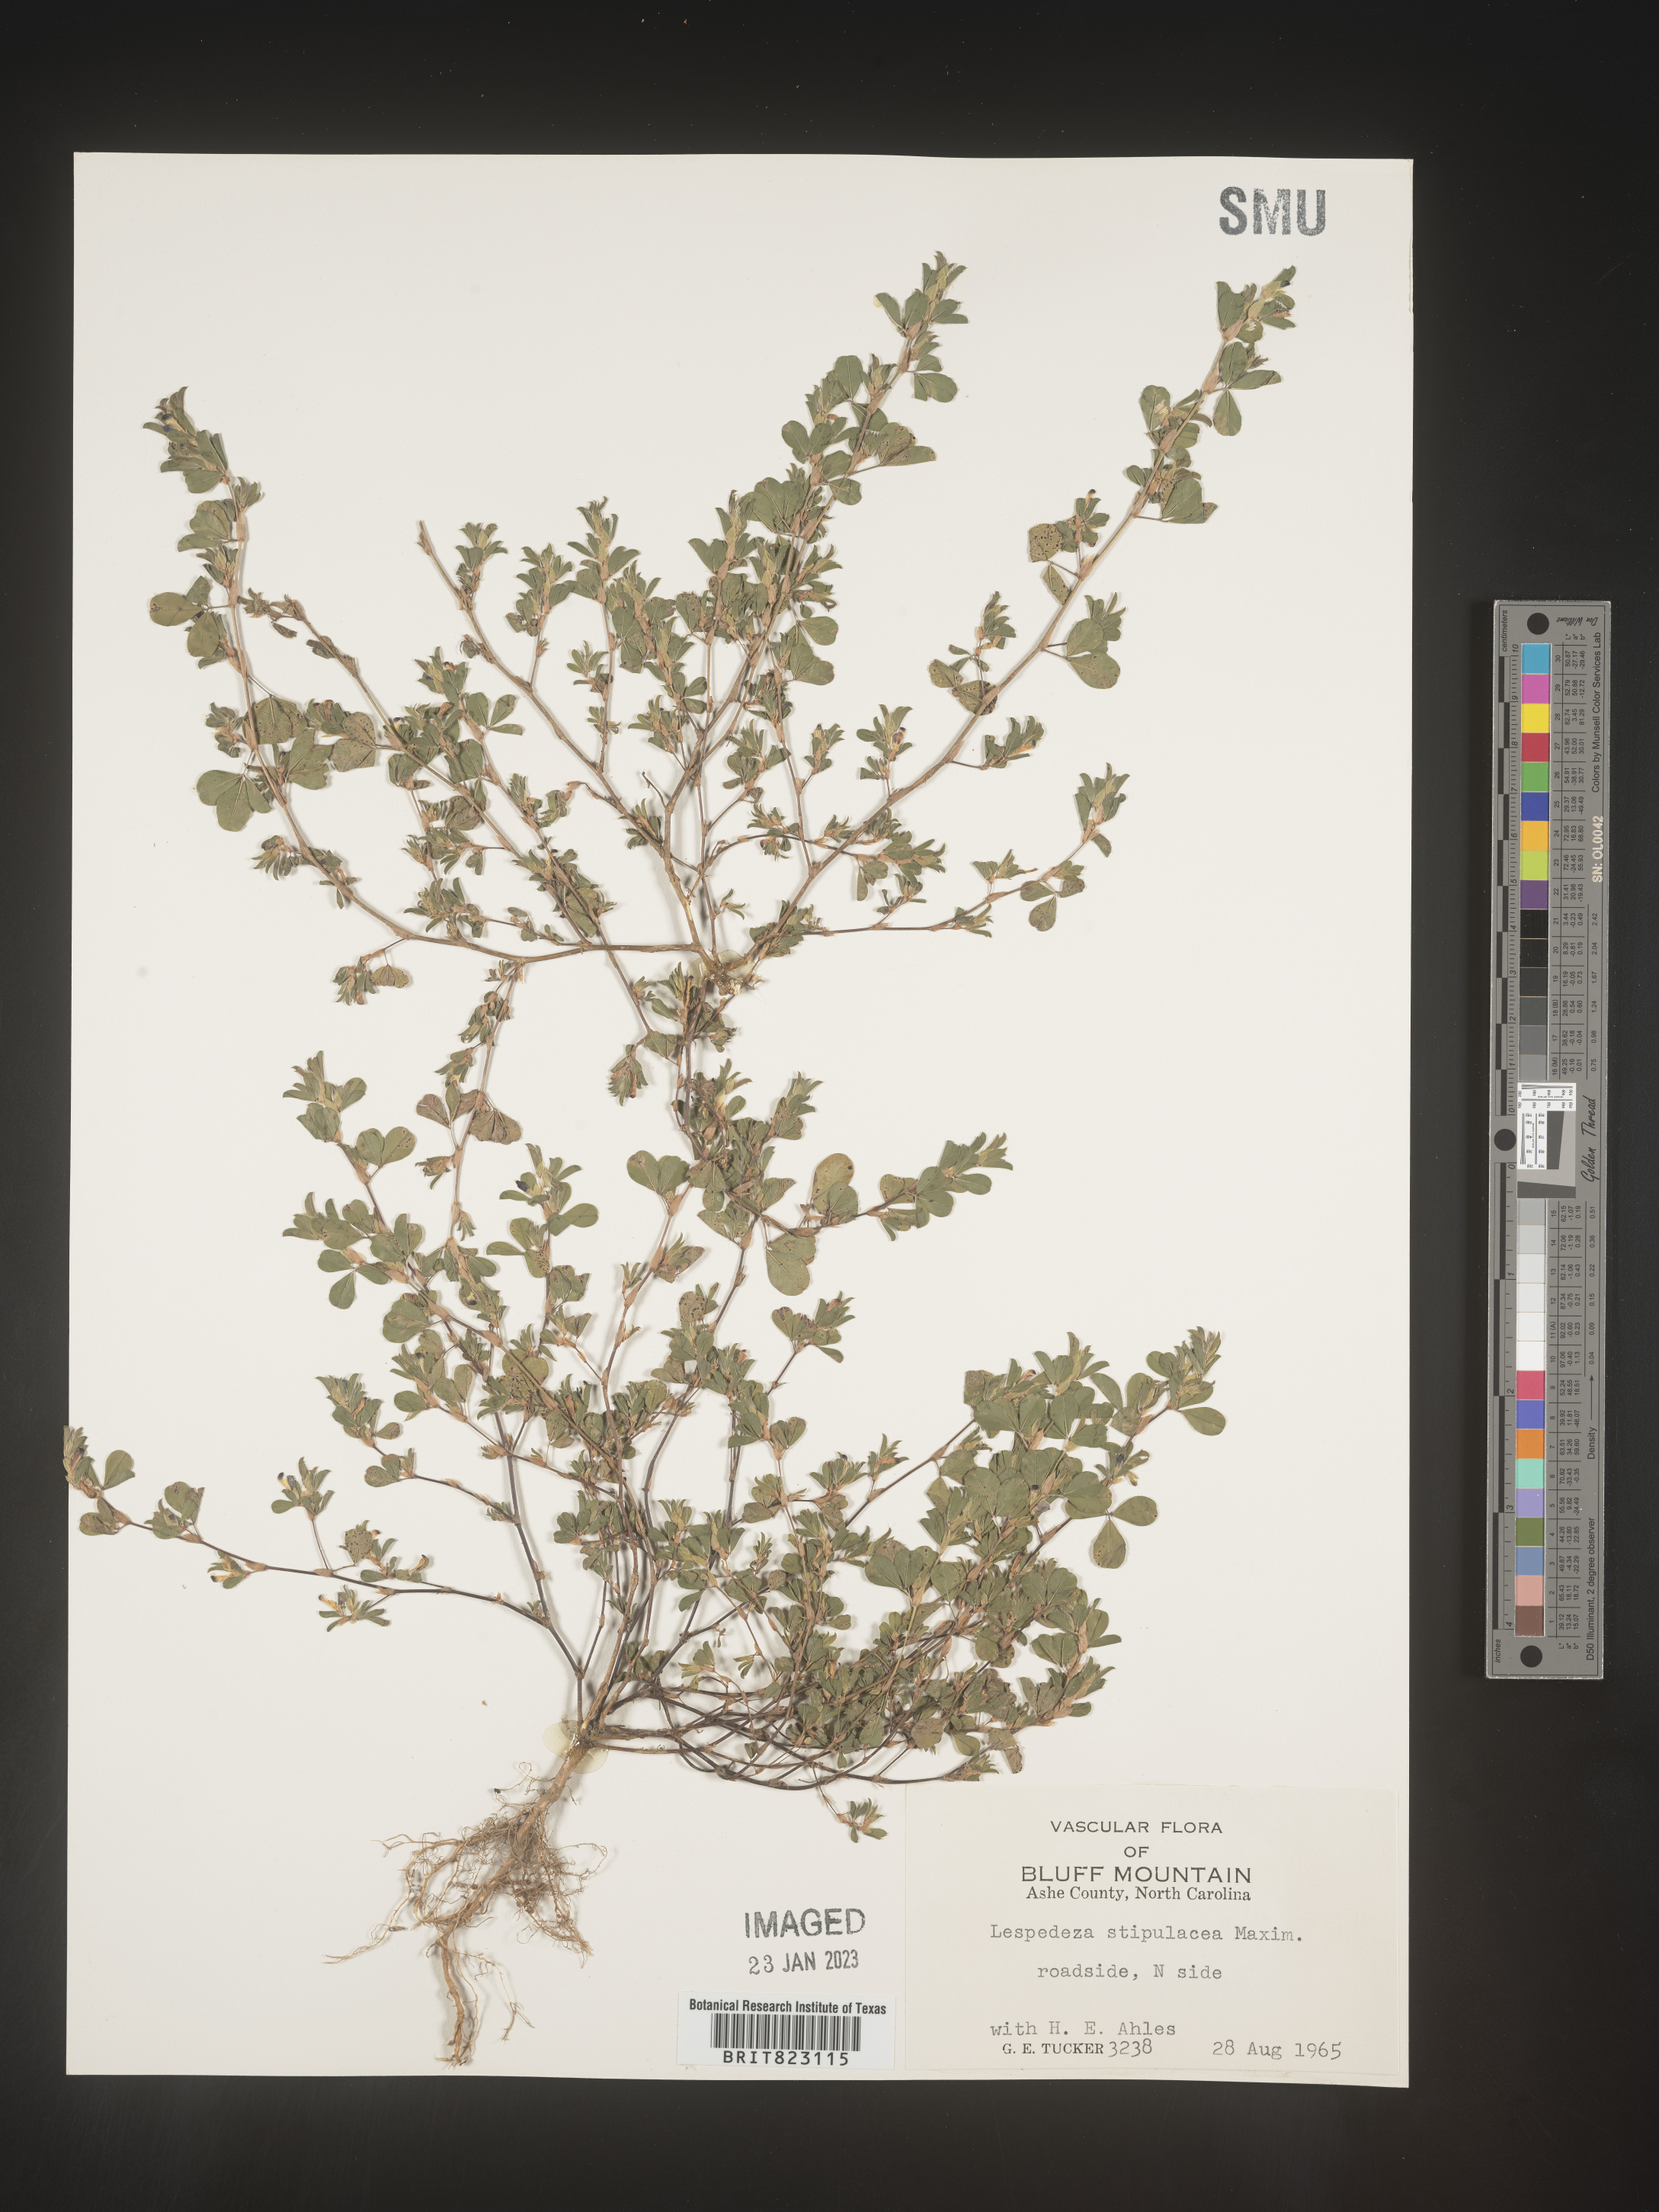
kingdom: Plantae
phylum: Tracheophyta
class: Magnoliopsida
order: Fabales
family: Fabaceae
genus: Lespedeza
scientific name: Lespedeza
